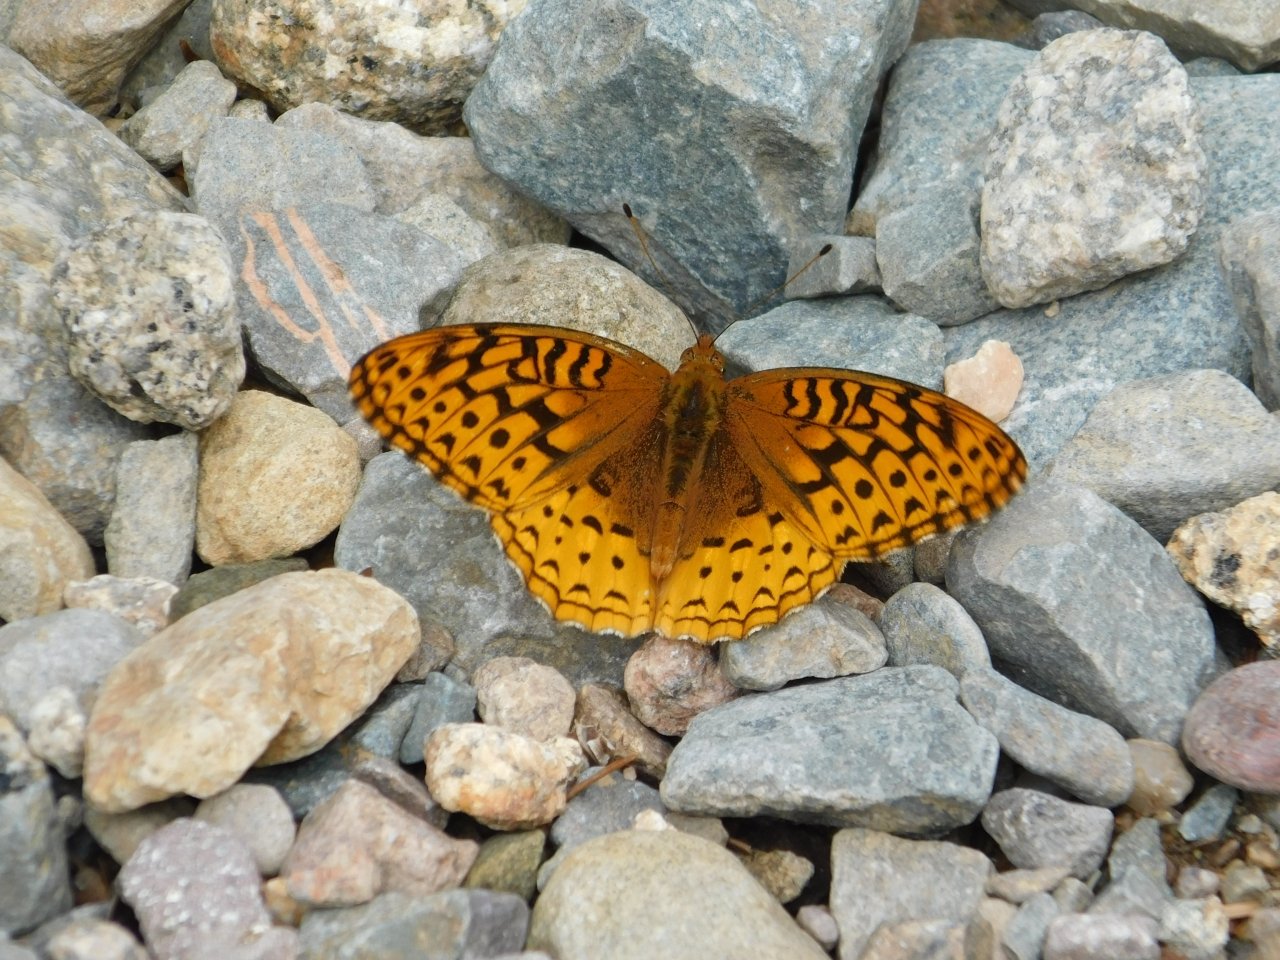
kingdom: Animalia
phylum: Arthropoda
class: Insecta
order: Lepidoptera
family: Nymphalidae
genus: Speyeria
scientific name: Speyeria cybele
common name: Great Spangled Fritillary
